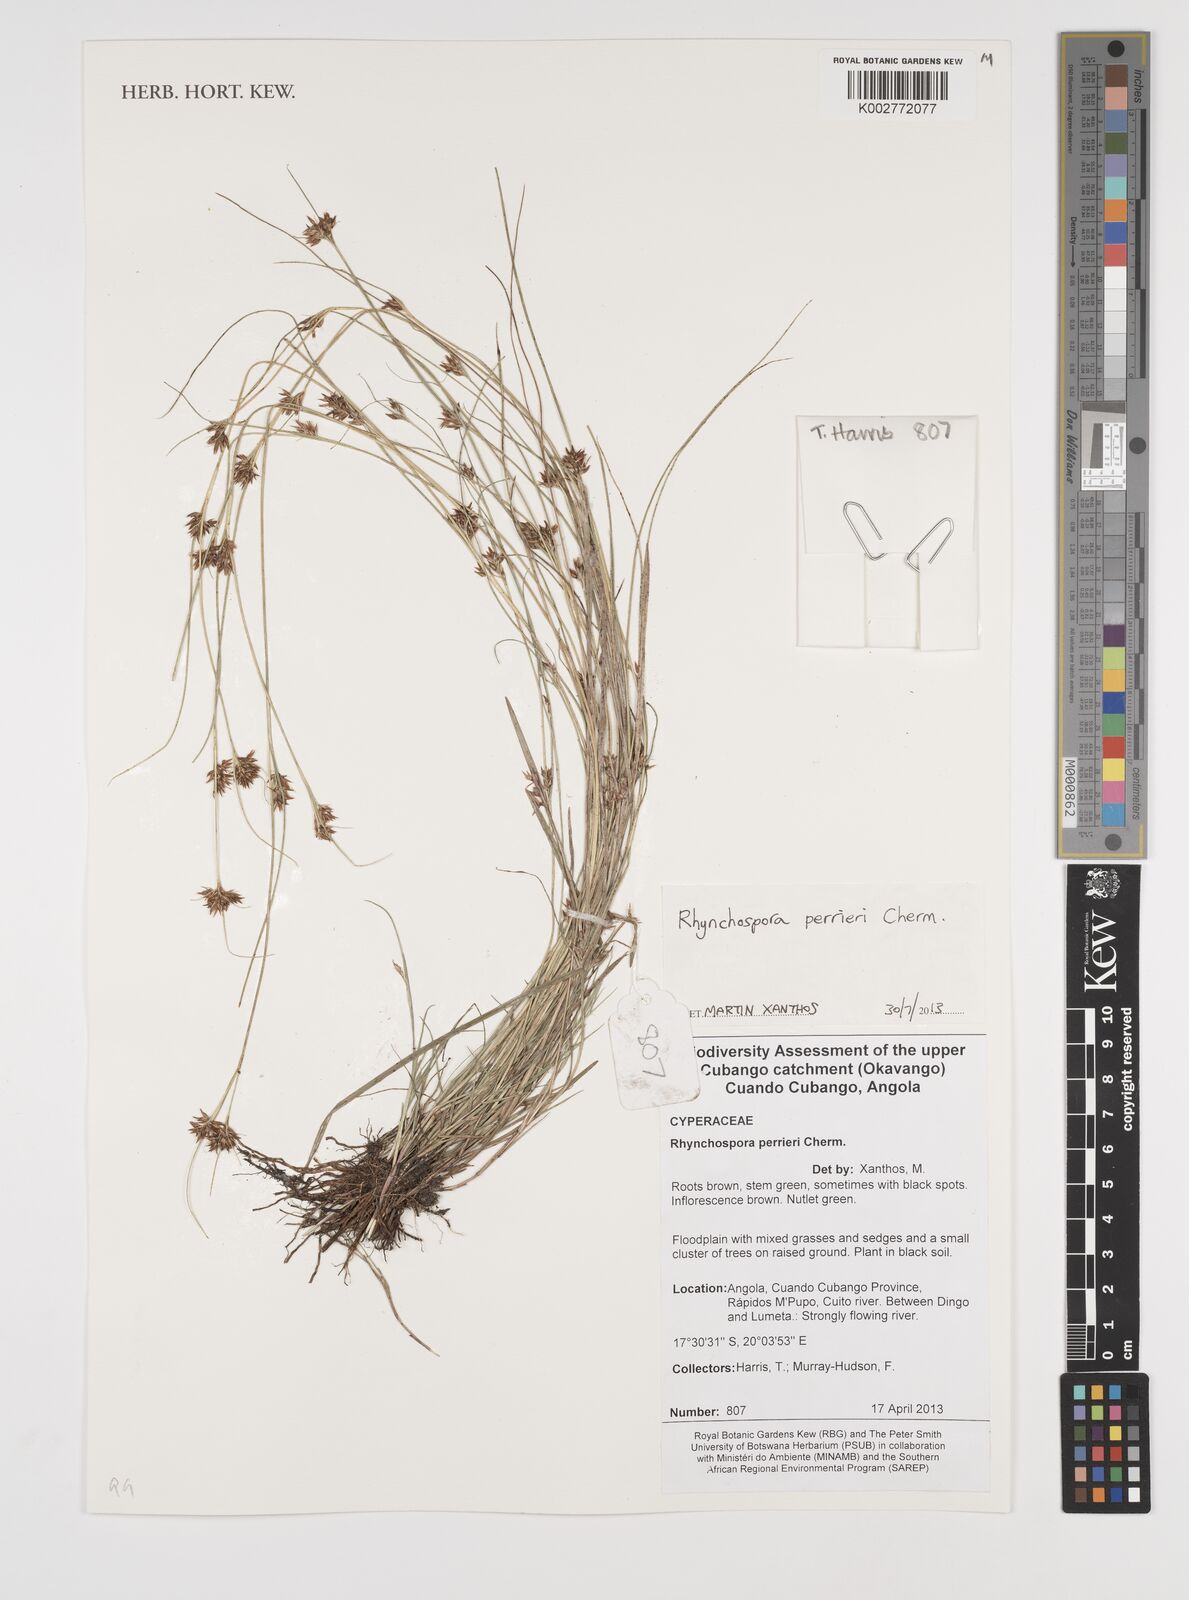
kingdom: Plantae
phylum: Tracheophyta
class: Liliopsida
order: Poales
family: Cyperaceae
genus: Rhynchospora
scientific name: Rhynchospora perrieri
